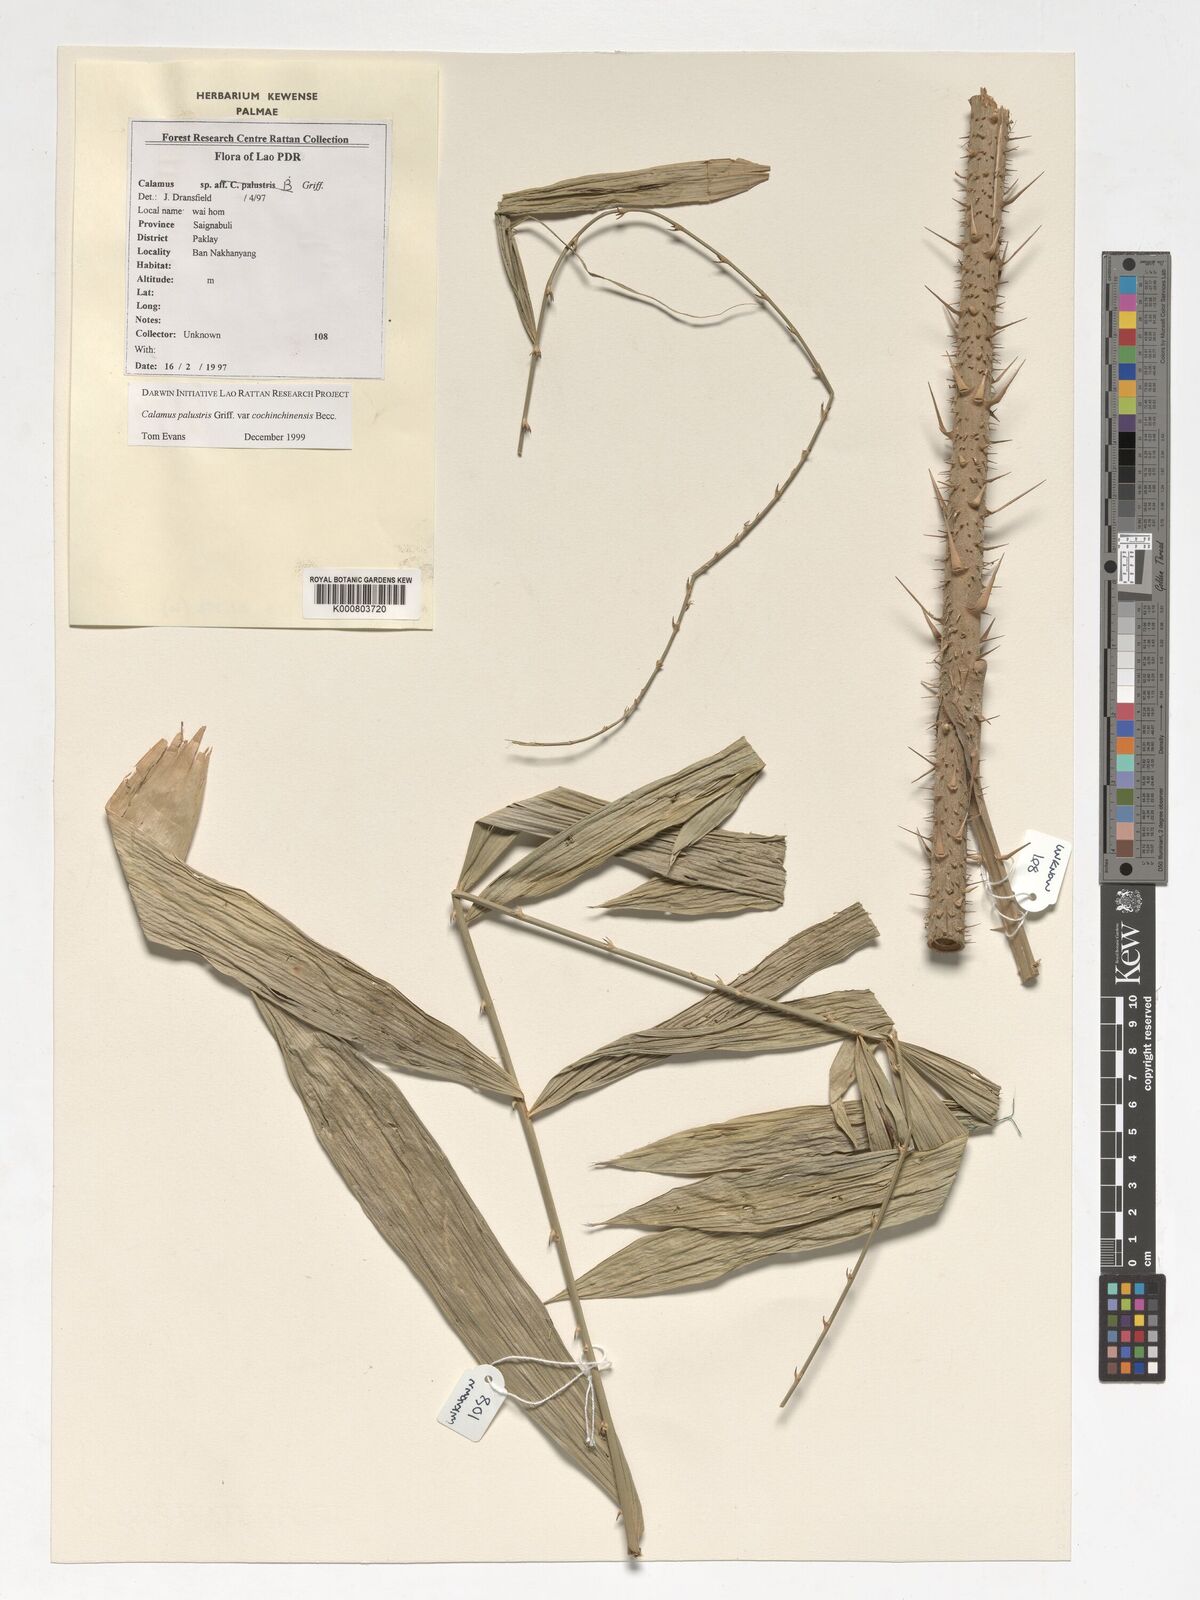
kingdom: Plantae
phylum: Tracheophyta
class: Liliopsida
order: Arecales
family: Arecaceae
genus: Calamus
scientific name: Calamus latifolius
